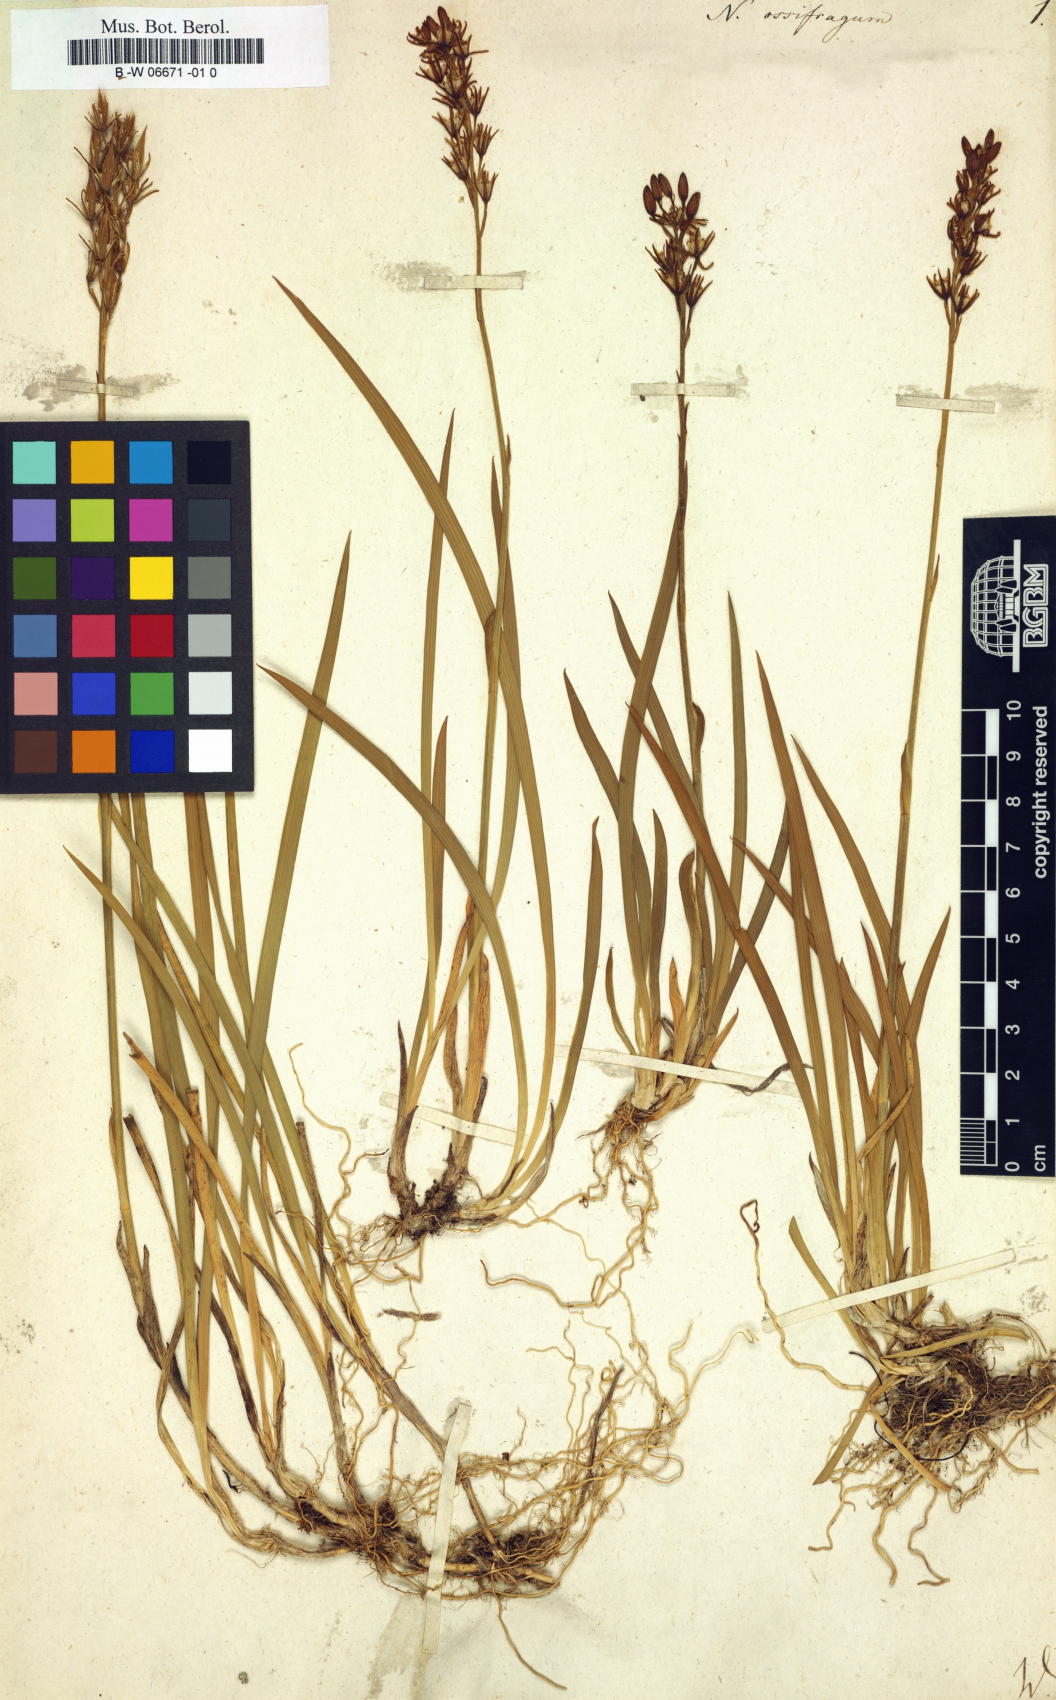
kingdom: Plantae
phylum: Tracheophyta
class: Liliopsida
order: Dioscoreales
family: Nartheciaceae
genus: Narthecium
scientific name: Narthecium ossifragum
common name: Bog asphodel
